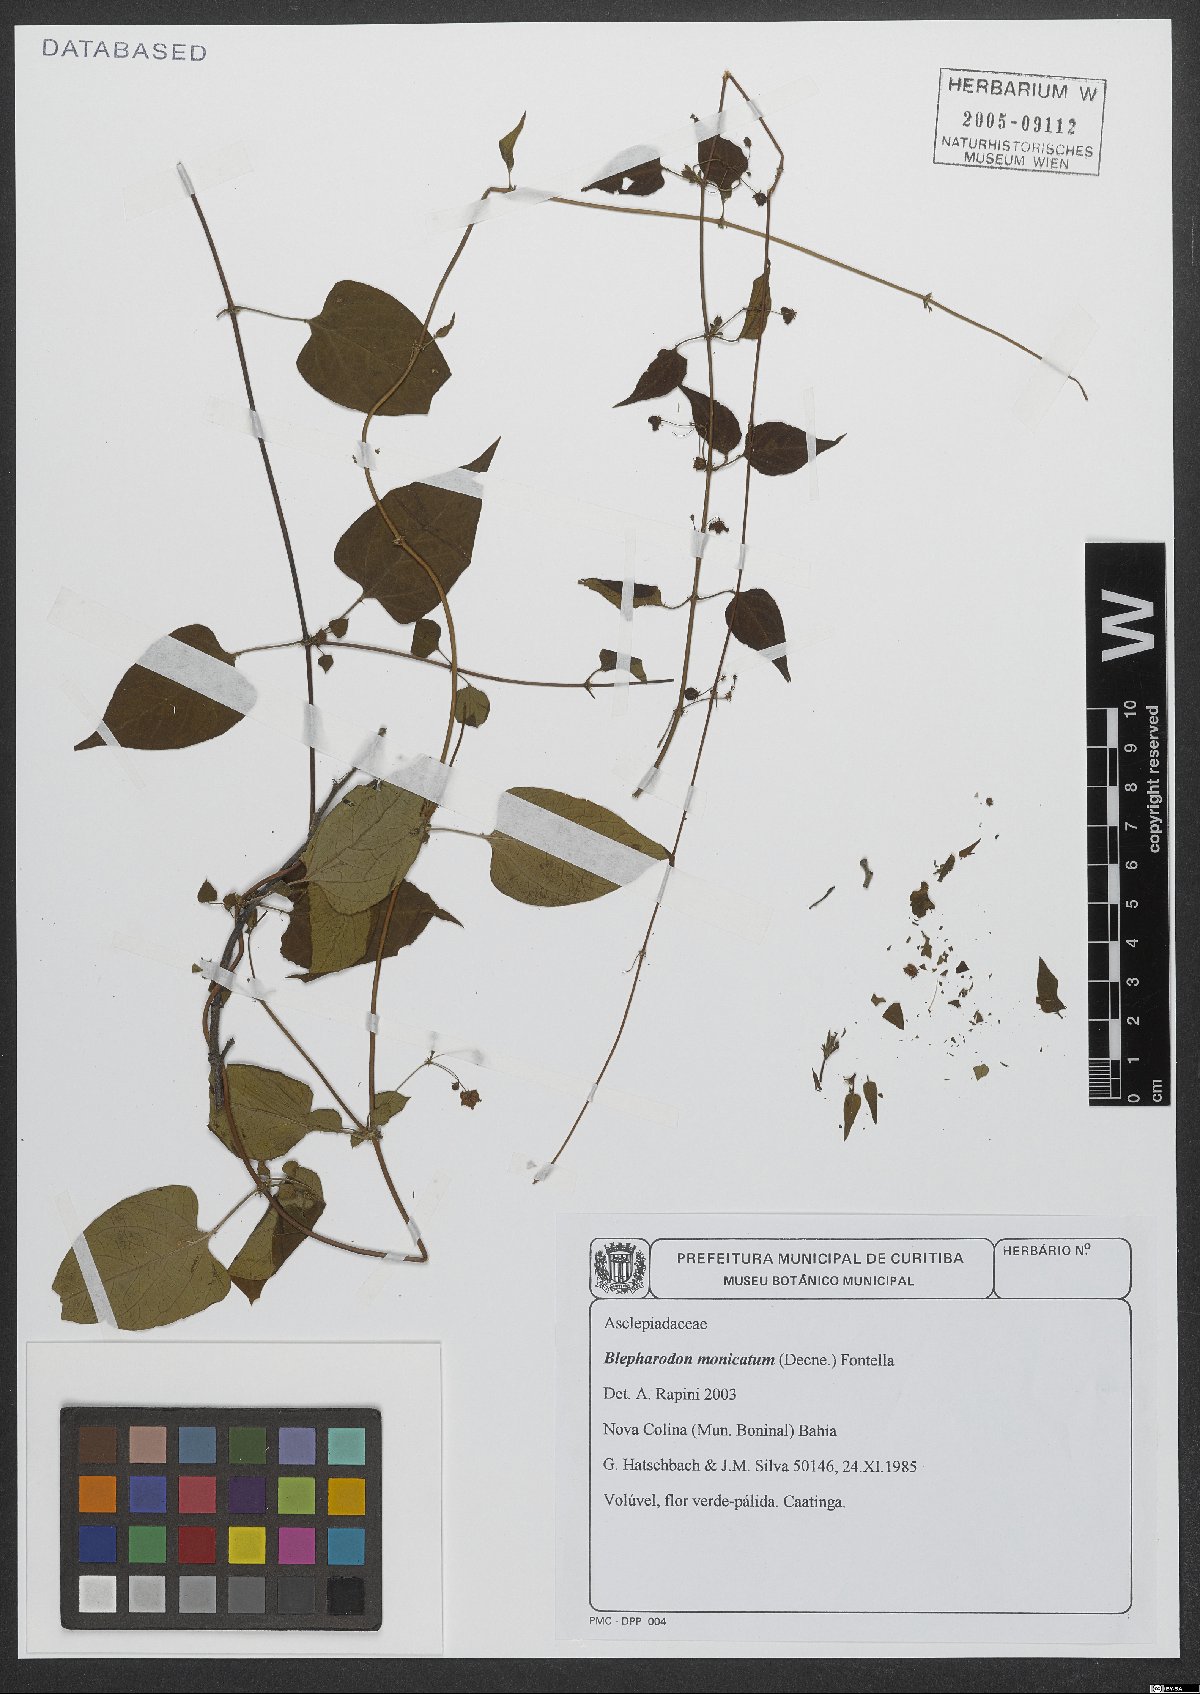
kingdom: Plantae
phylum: Tracheophyta
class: Magnoliopsida
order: Gentianales
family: Apocynaceae
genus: Blepharodon
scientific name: Blepharodon manicatum
